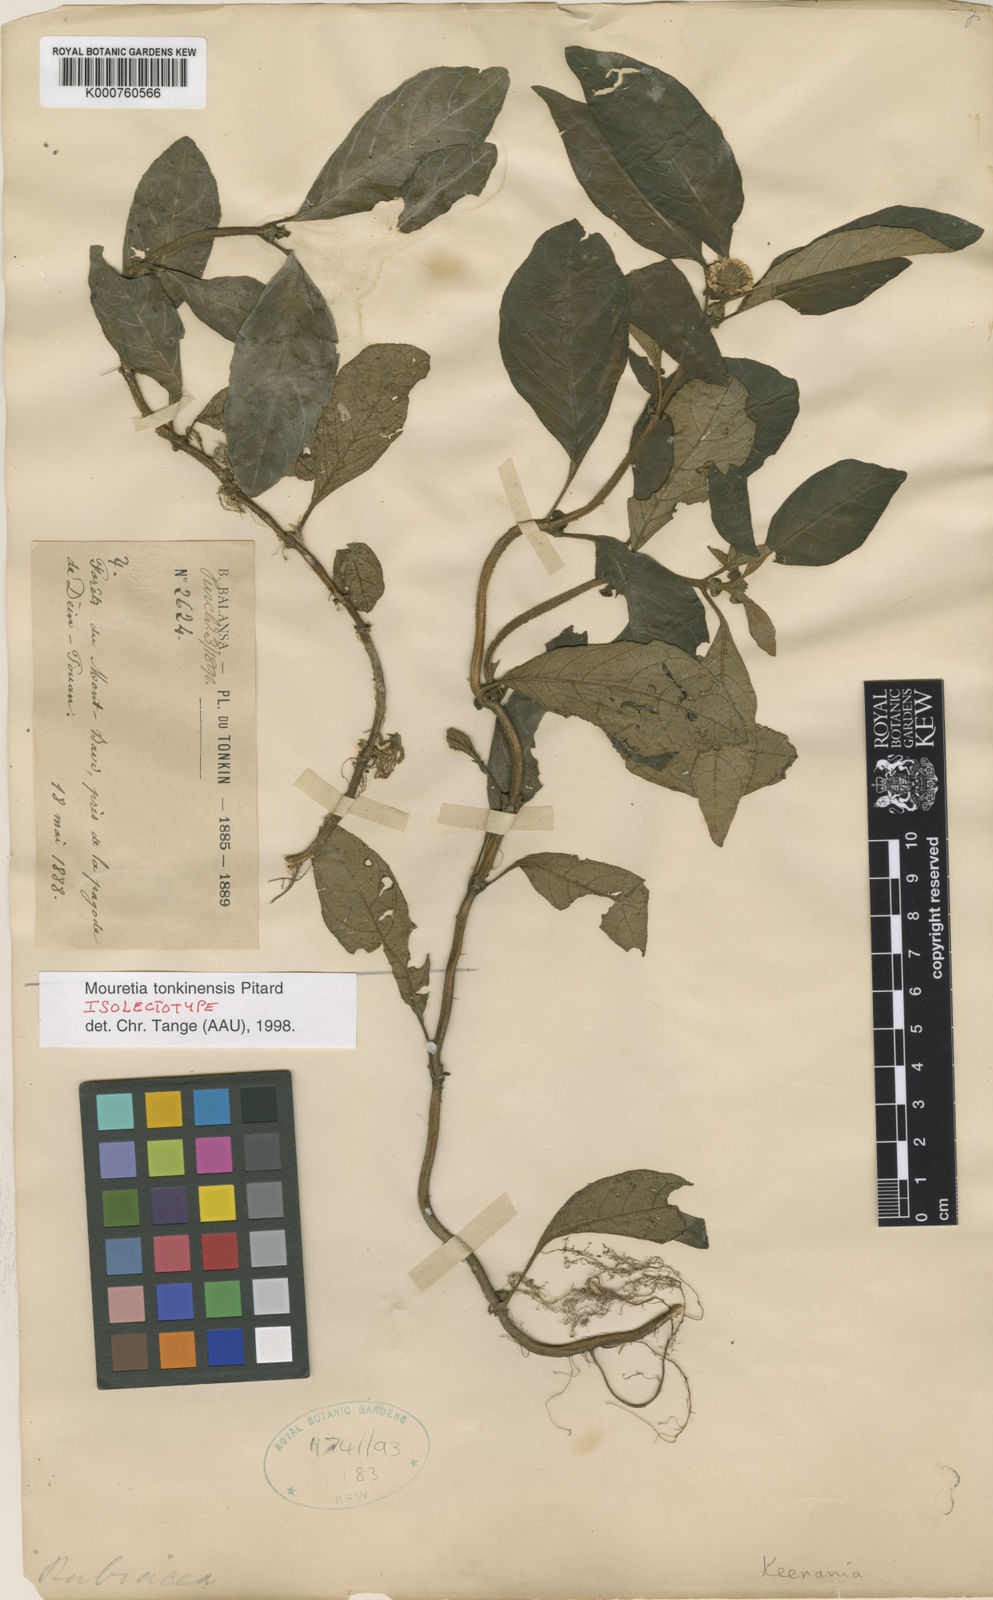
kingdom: Plantae
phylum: Tracheophyta
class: Magnoliopsida
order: Gentianales
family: Rubiaceae
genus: Mouretia
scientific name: Mouretia tonkinensis
